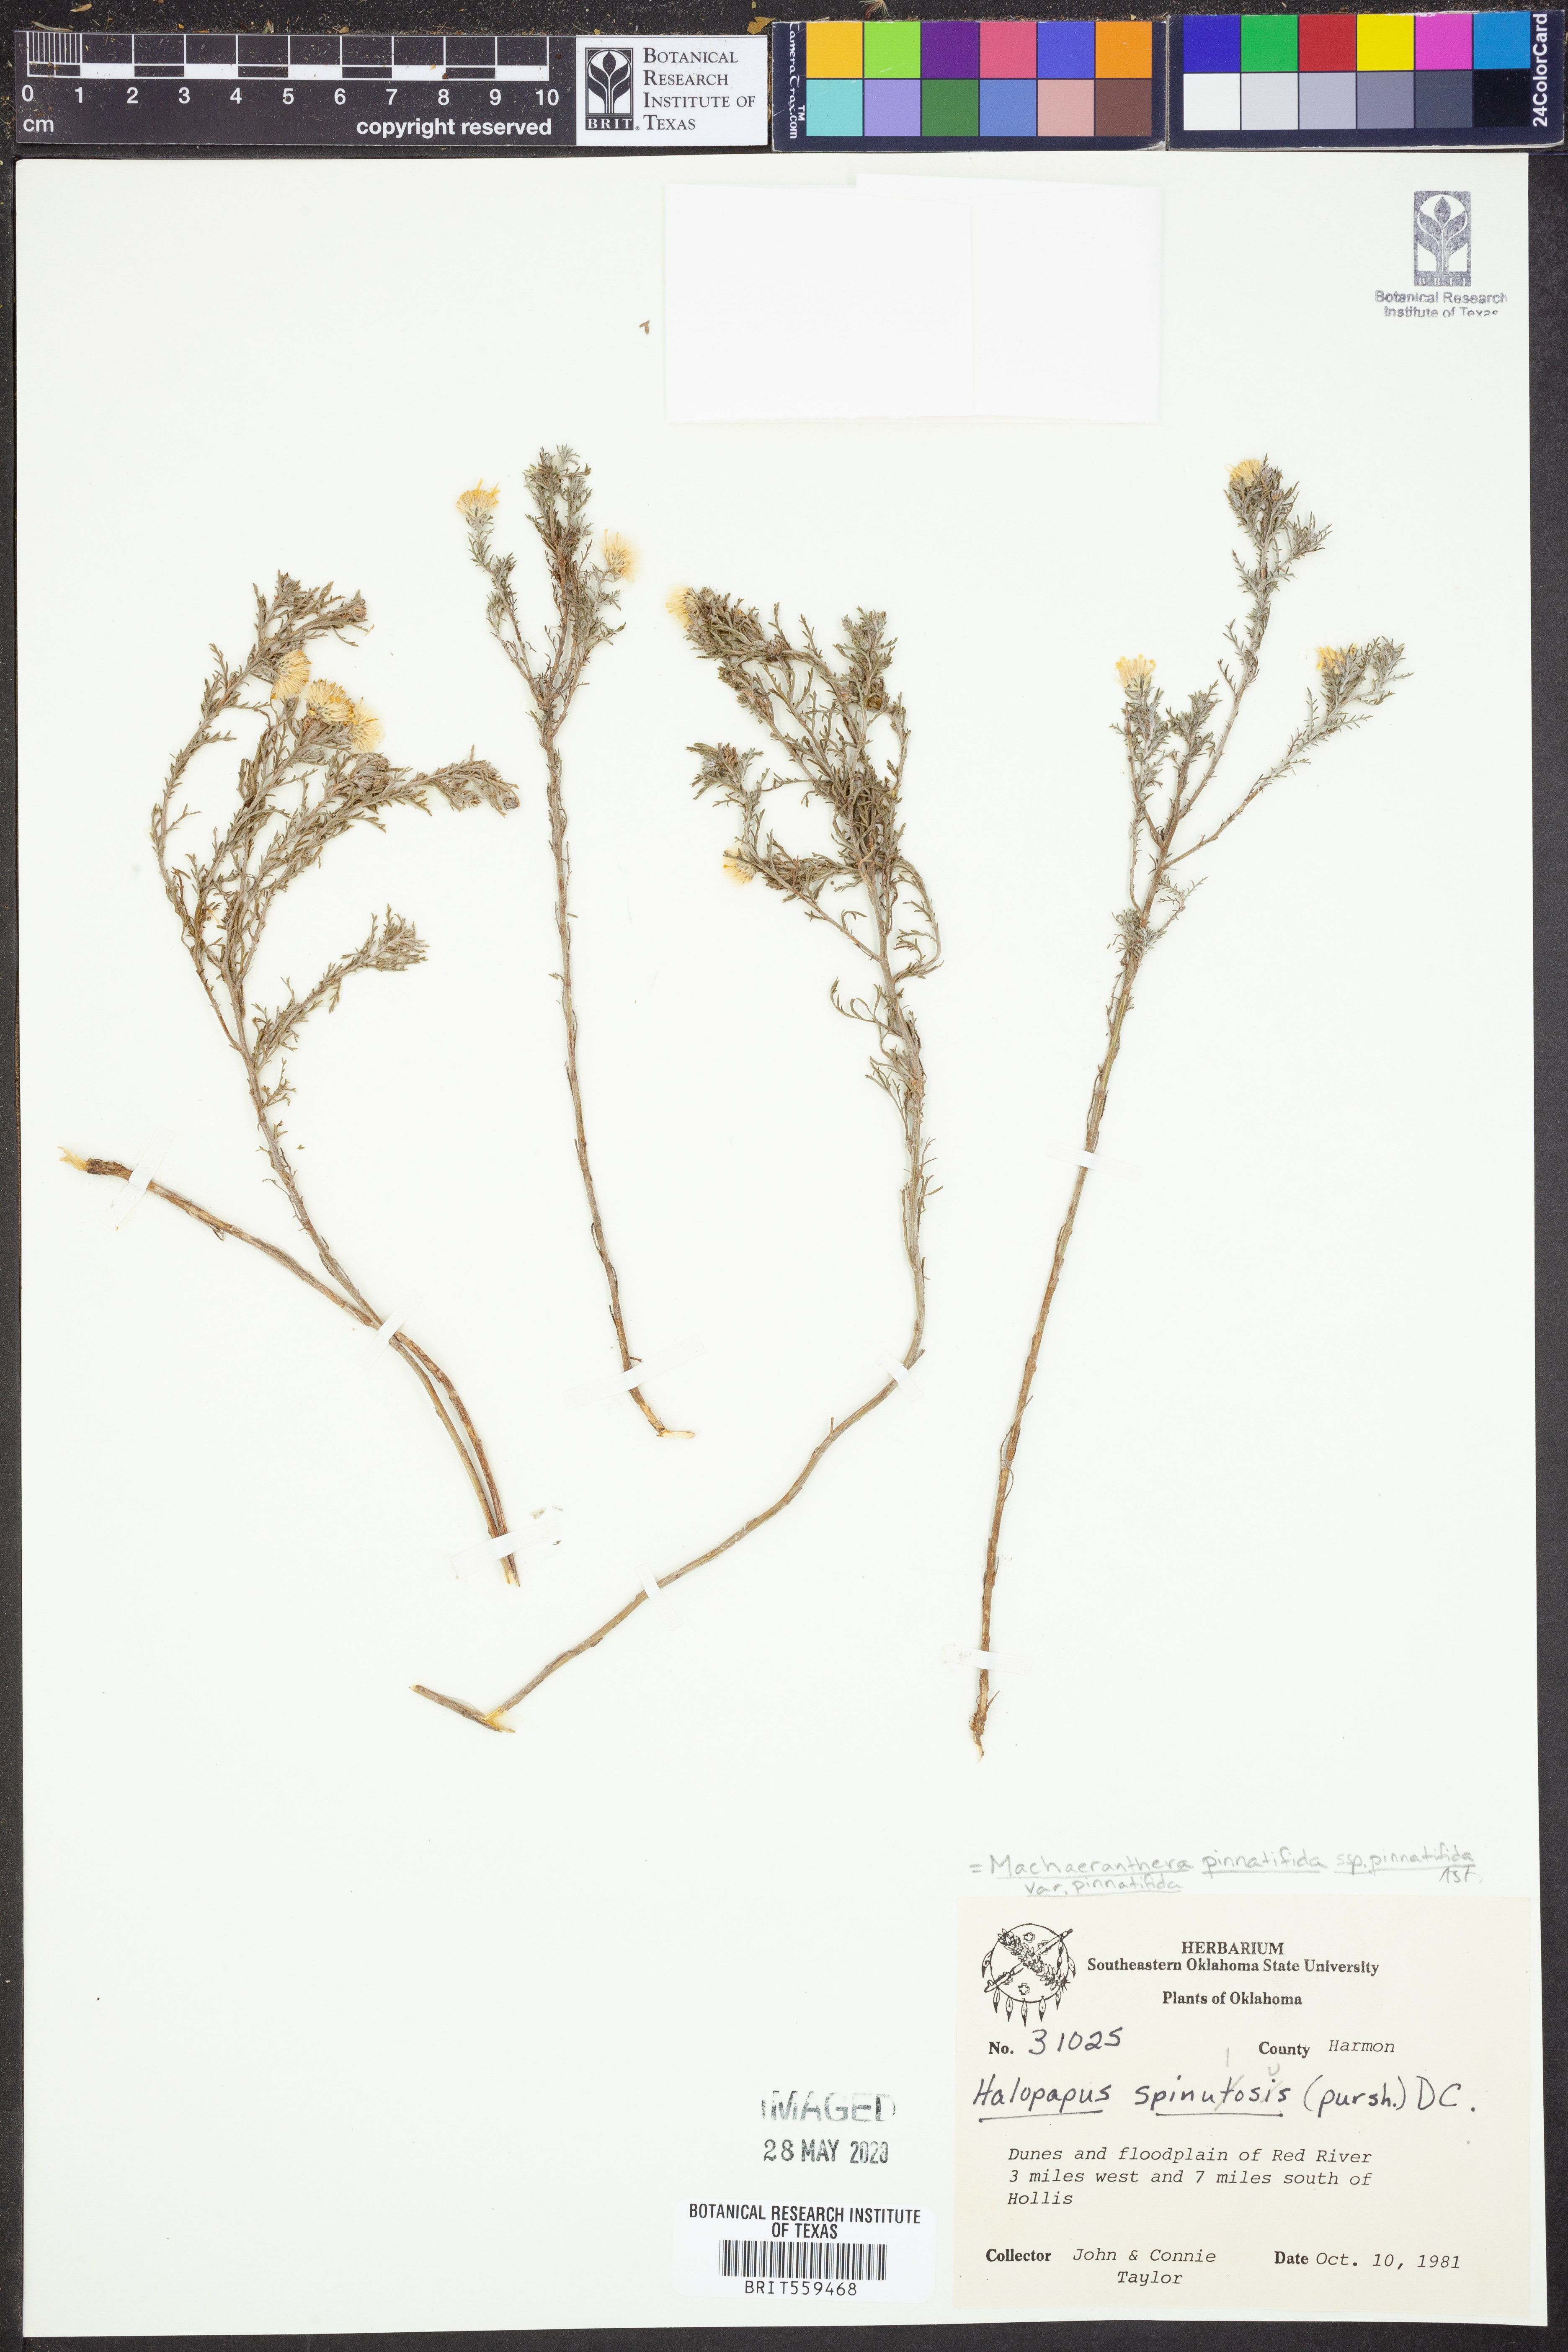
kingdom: Plantae
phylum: Tracheophyta
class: Magnoliopsida
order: Asterales
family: Asteraceae
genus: Xanthisma
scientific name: Xanthisma spinulosum
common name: Spiny goldenweed
